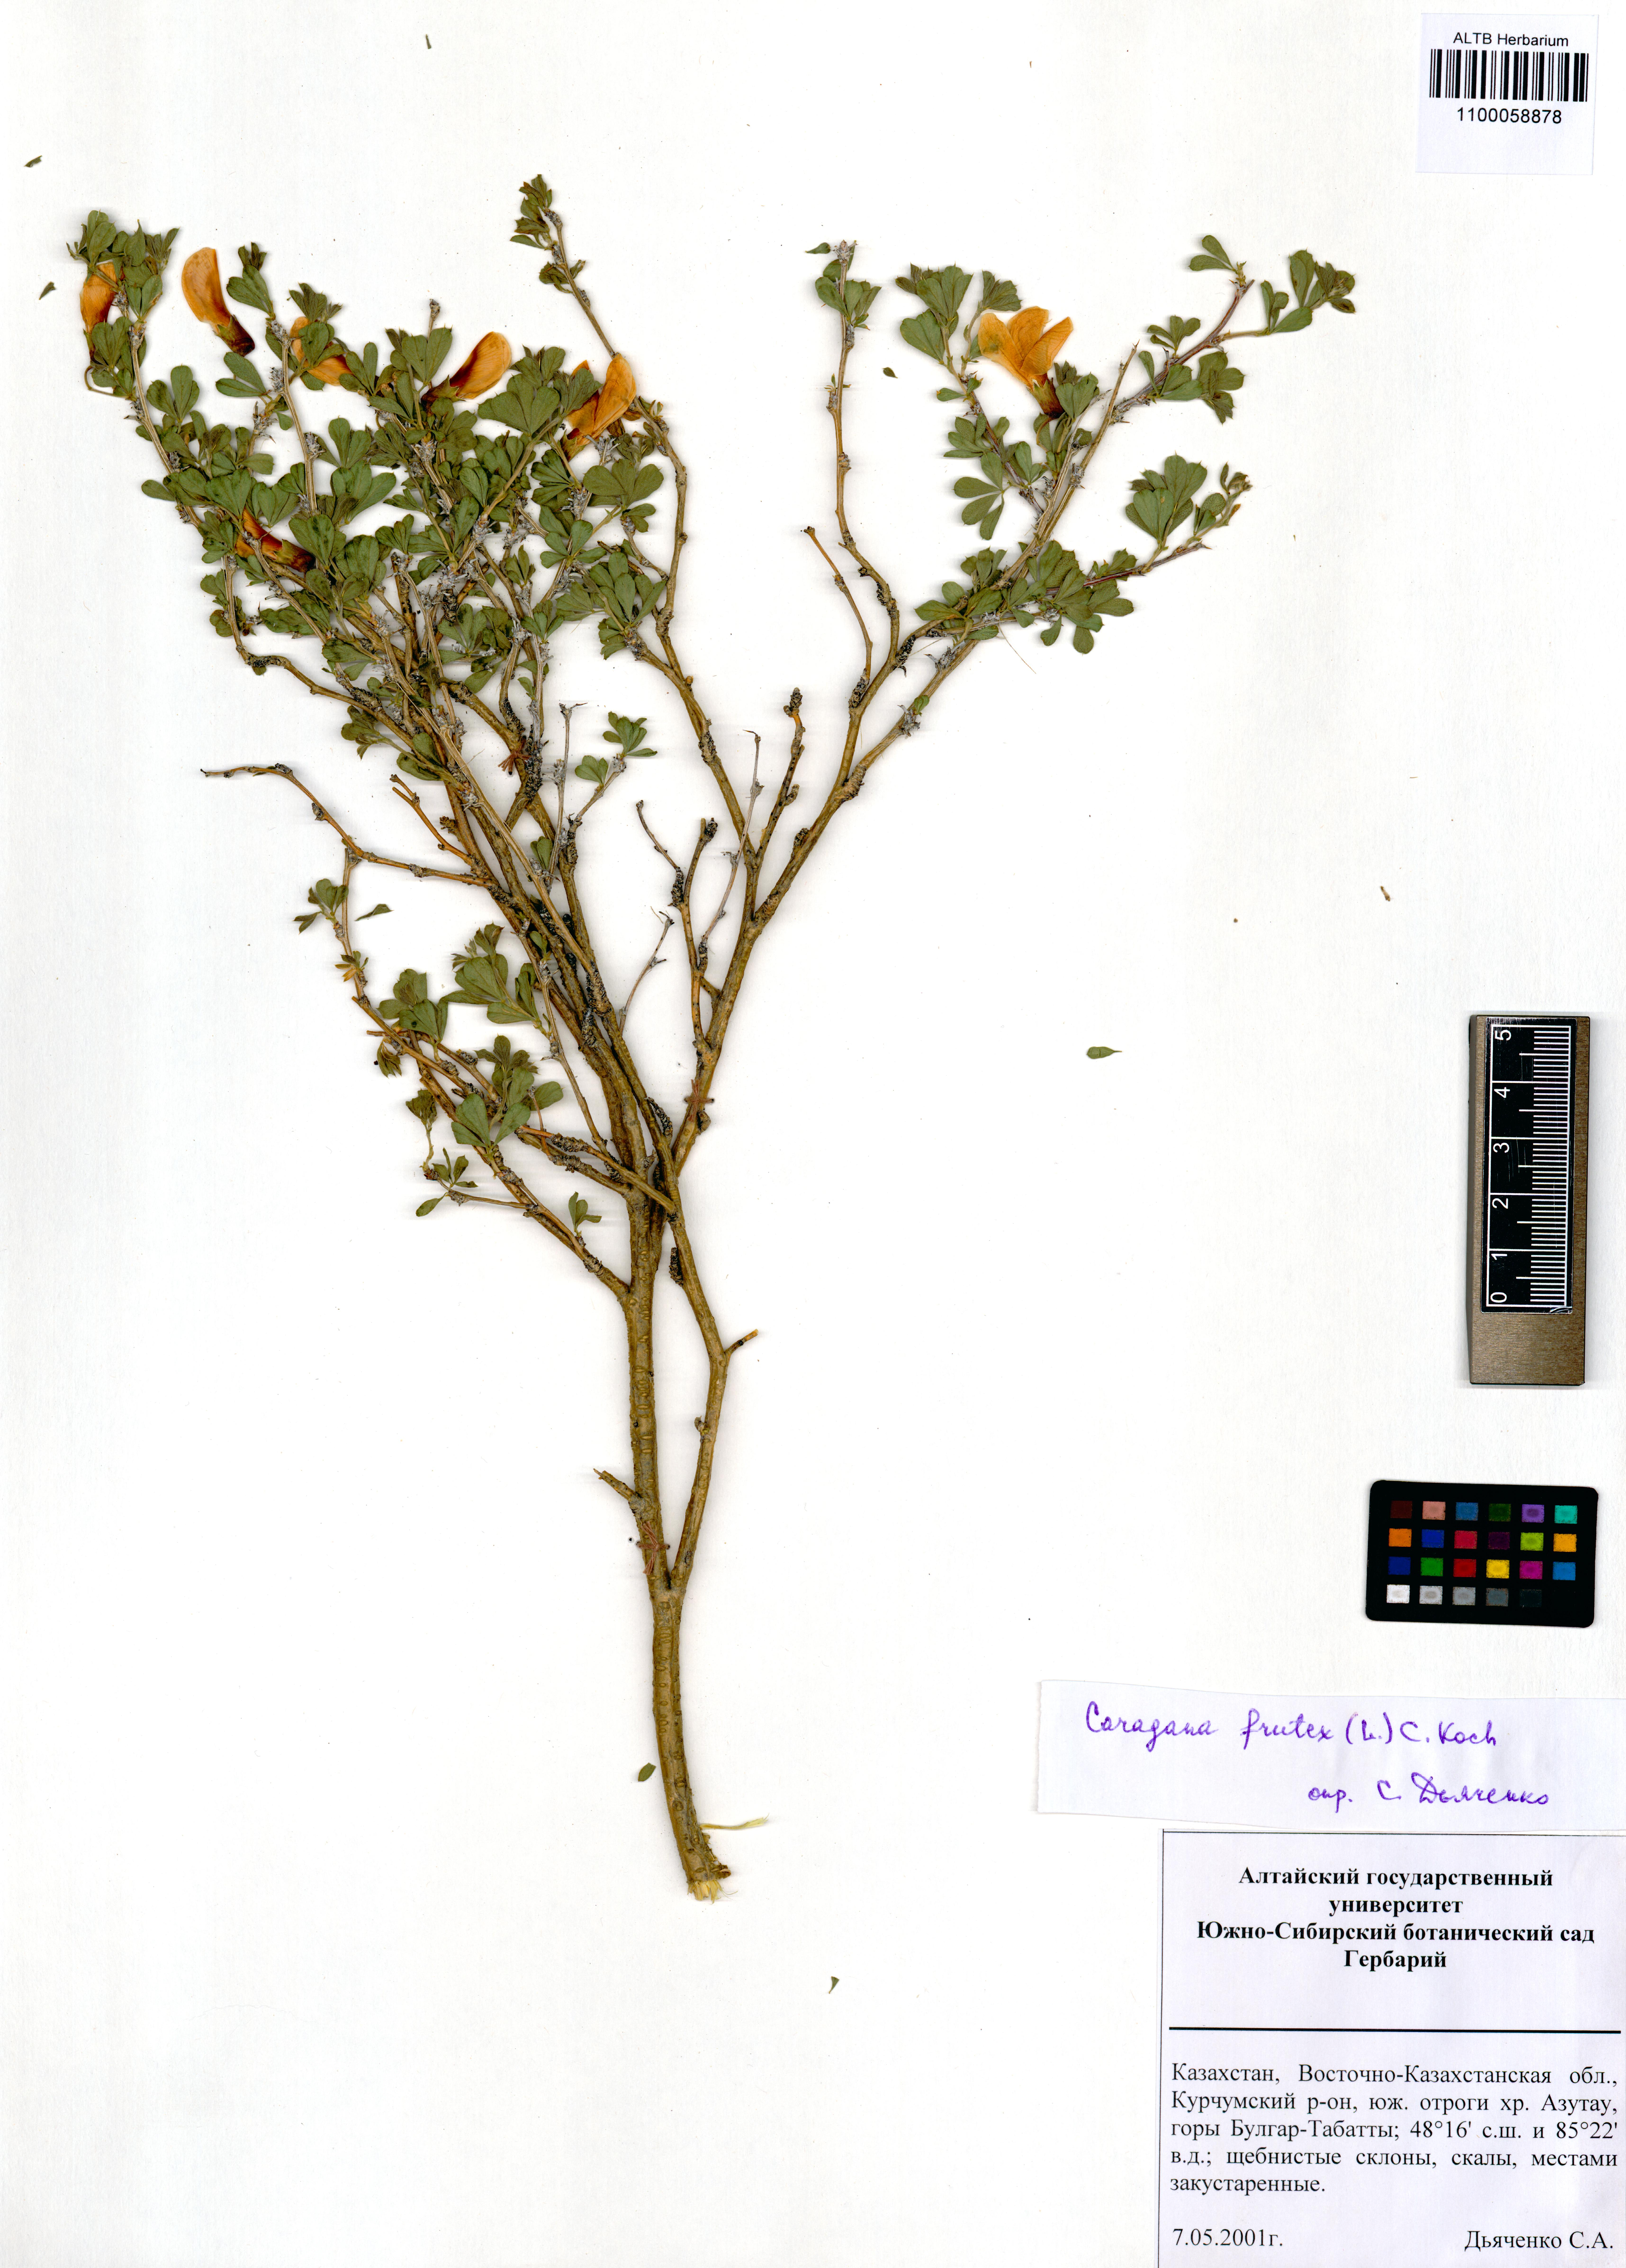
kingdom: Plantae
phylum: Tracheophyta
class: Magnoliopsida
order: Fabales
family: Fabaceae
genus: Caragana
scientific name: Caragana frutex
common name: Russian peashrub
